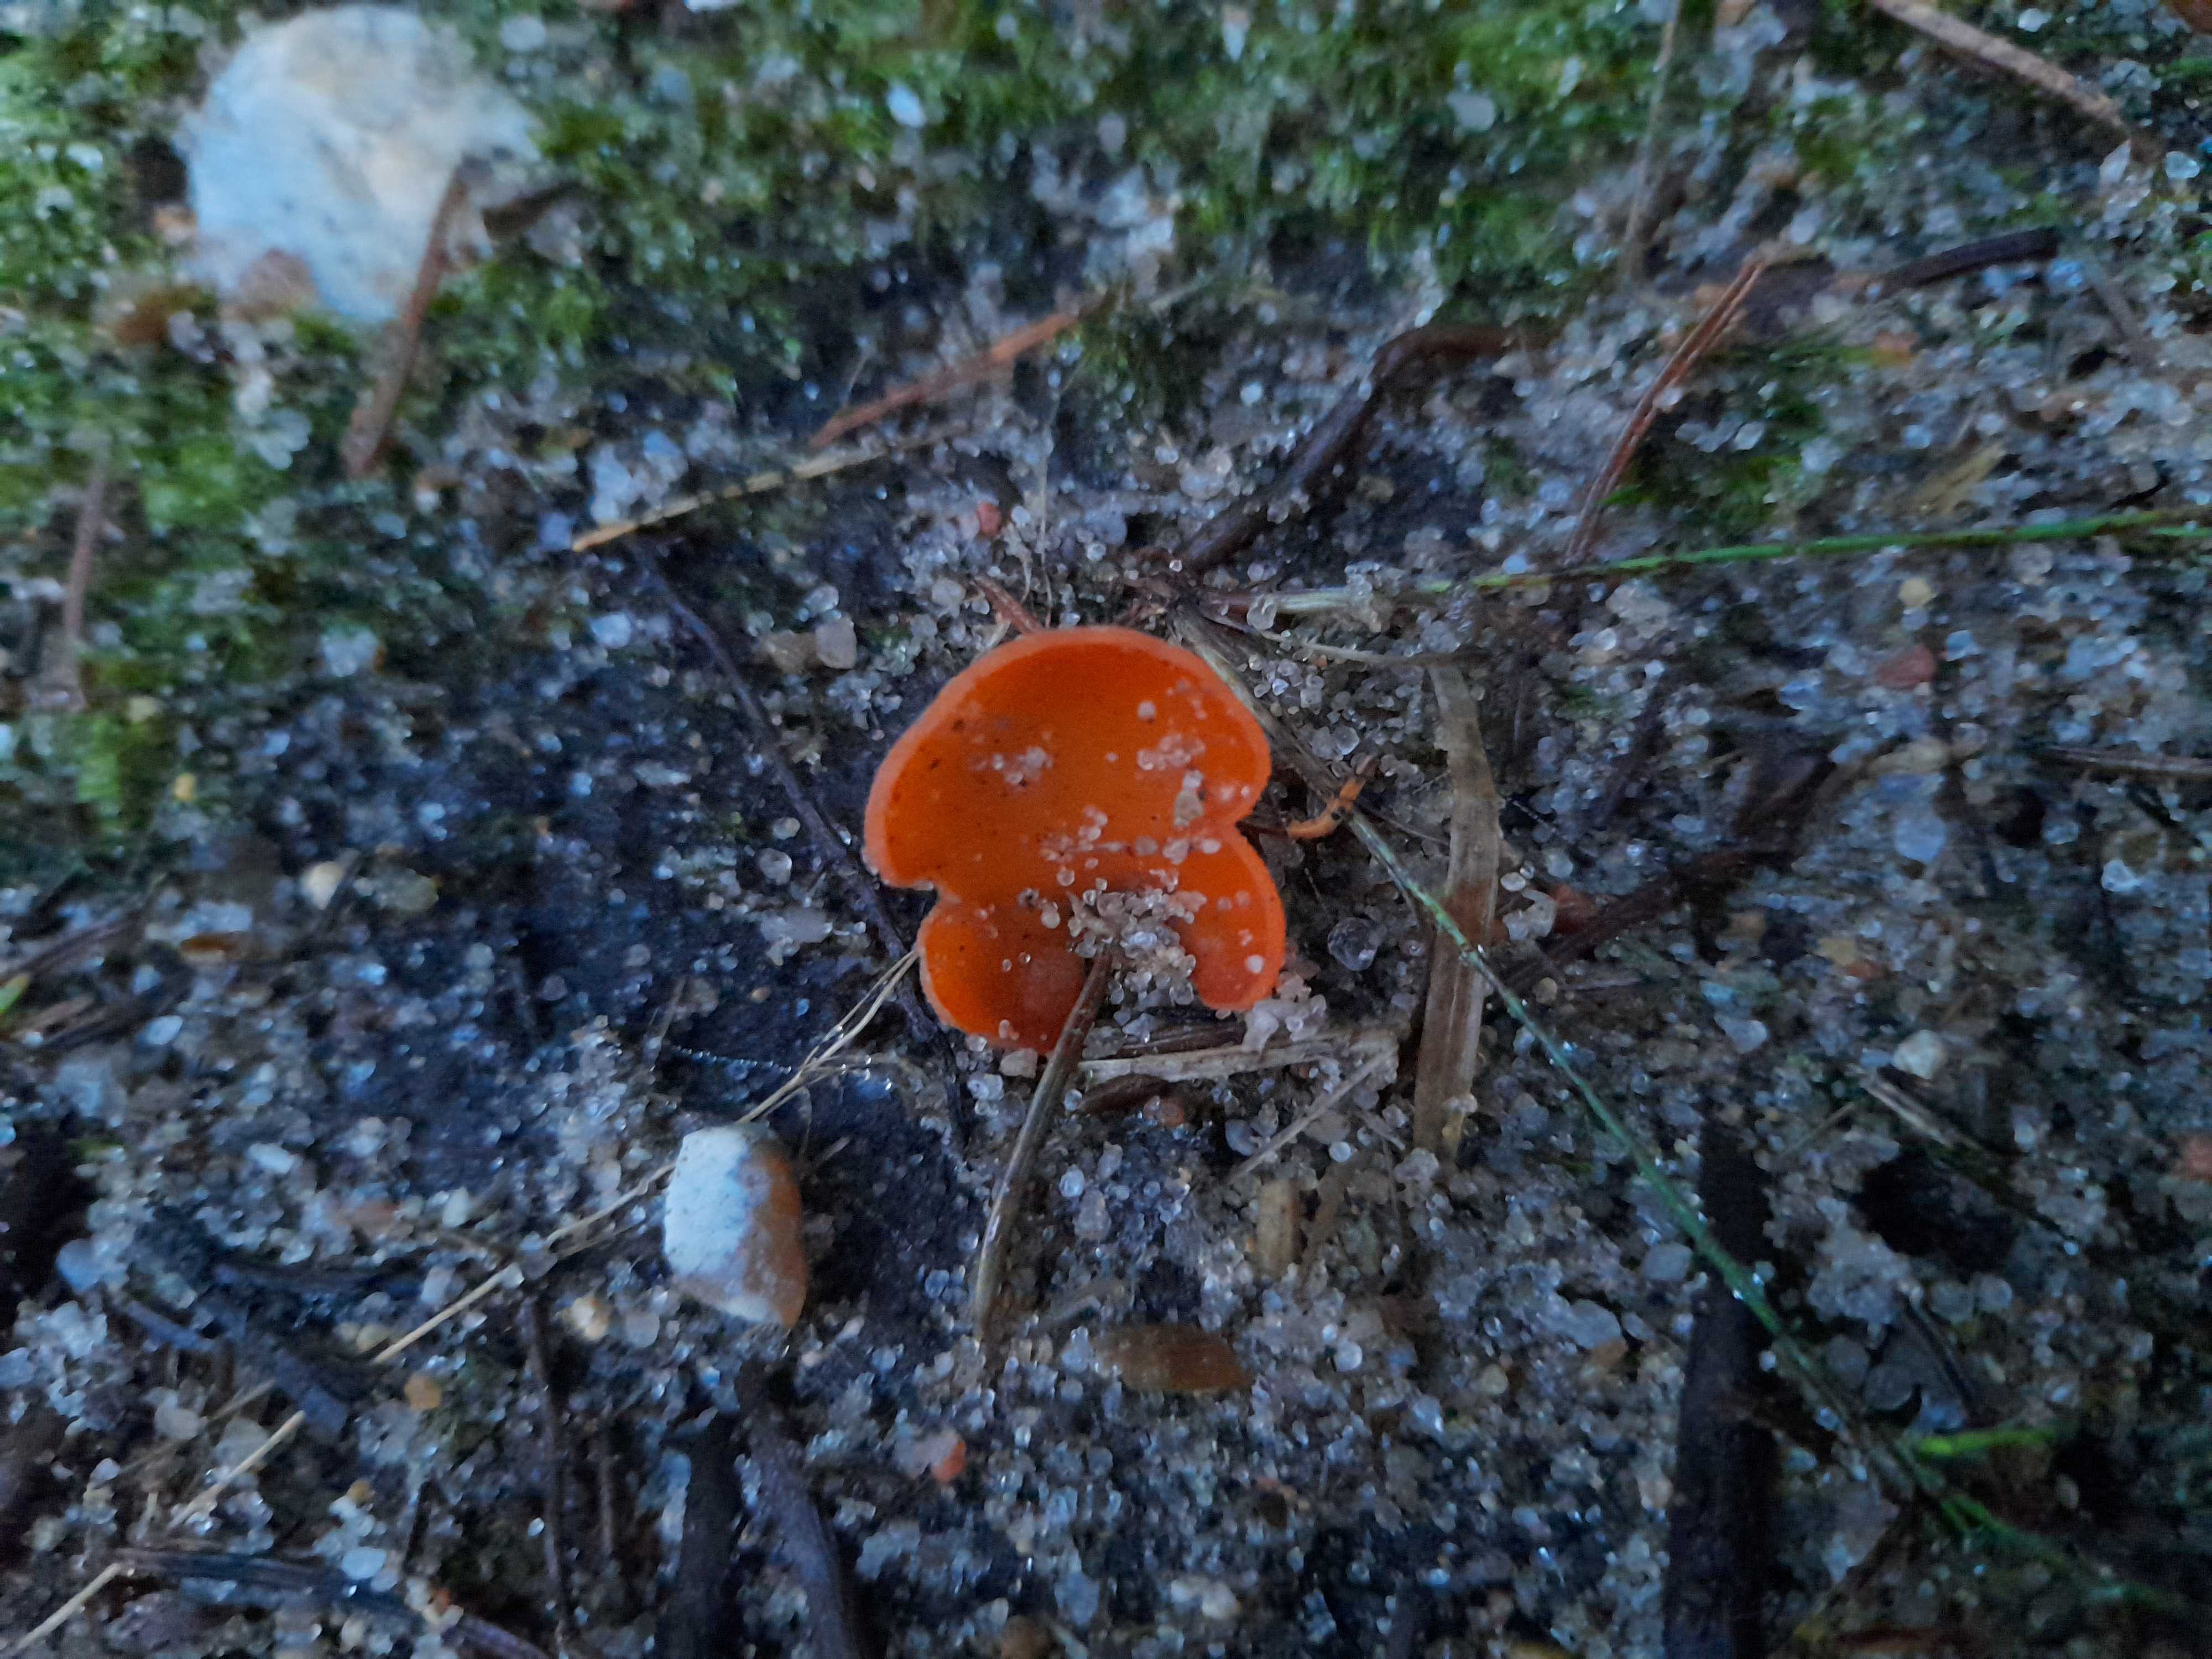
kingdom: Fungi
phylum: Ascomycota
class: Pezizomycetes
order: Pezizales
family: Pyronemataceae
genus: Aleuria
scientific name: Aleuria aurantia
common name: almindelig orangebæger
